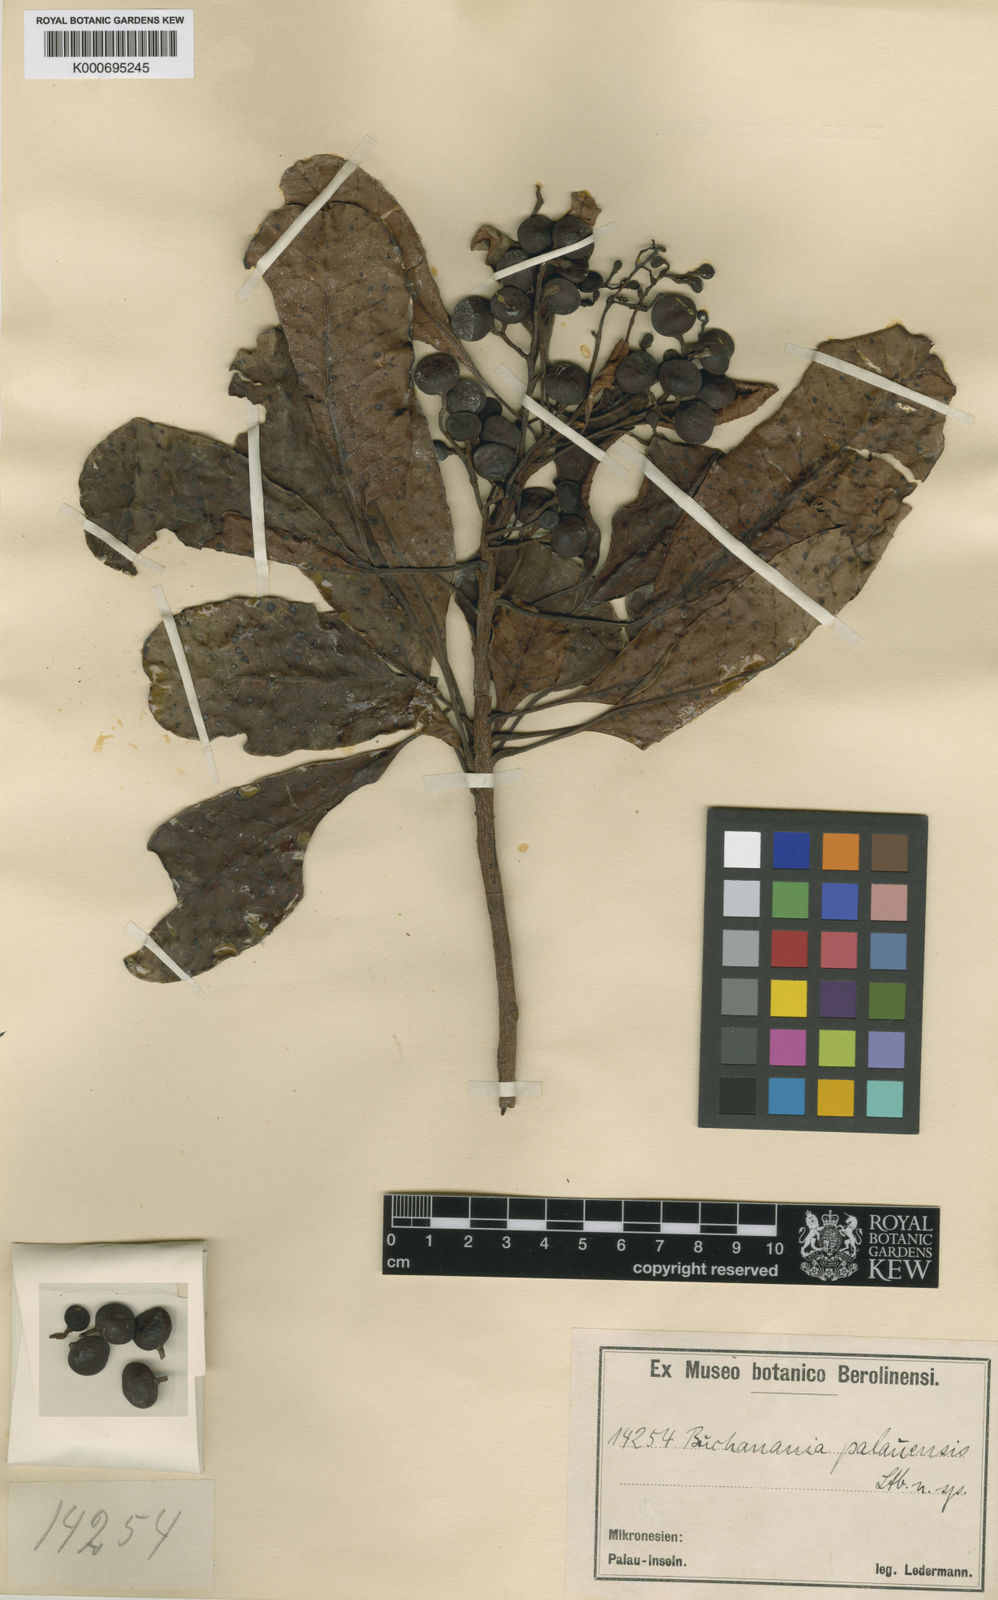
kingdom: Plantae
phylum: Tracheophyta
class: Magnoliopsida
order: Sapindales
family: Anacardiaceae
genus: Buchanania
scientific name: Buchanania palawensis
